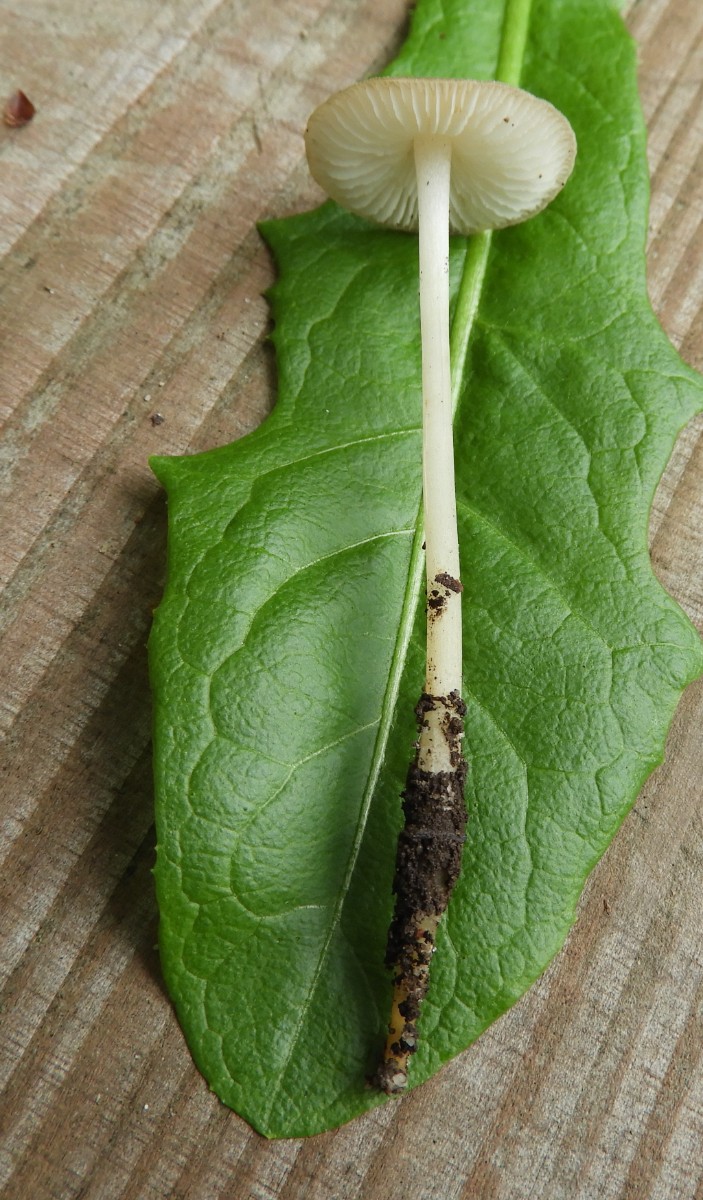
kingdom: Fungi
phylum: Basidiomycota
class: Agaricomycetes
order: Agaricales
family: Porotheleaceae
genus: Hydropodia
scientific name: Hydropodia subalpina
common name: vår-fnugfod
